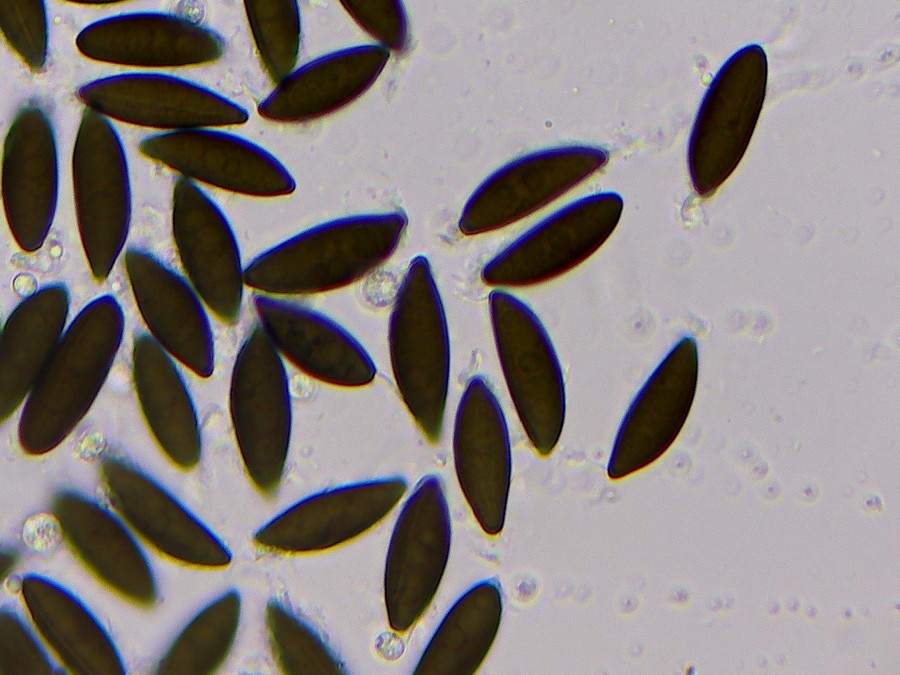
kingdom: Fungi
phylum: Ascomycota
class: Sordariomycetes
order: Xylariales
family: Xylariaceae
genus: Rosellinia
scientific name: Rosellinia
